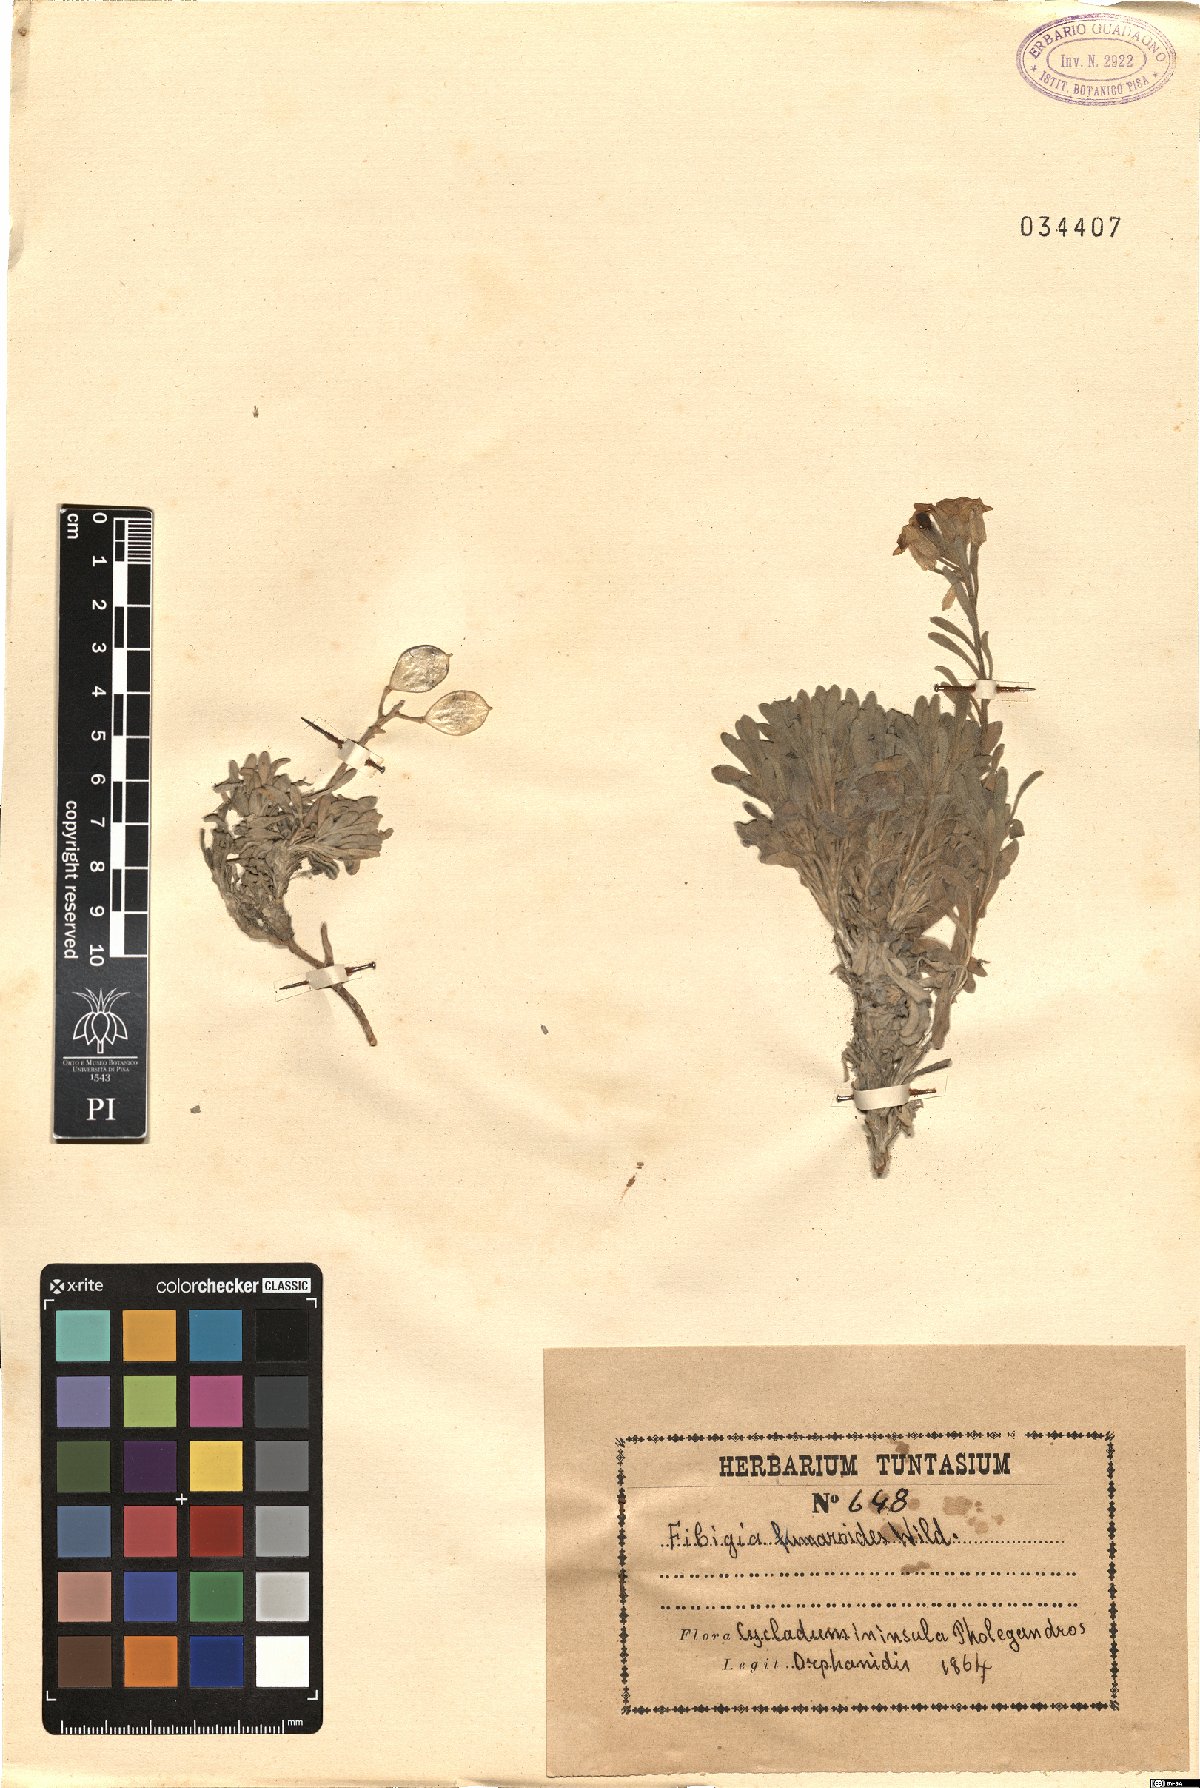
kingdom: Plantae
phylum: Tracheophyta
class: Magnoliopsida
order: Brassicales
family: Brassicaceae
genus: Acuston
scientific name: Acuston perenne
